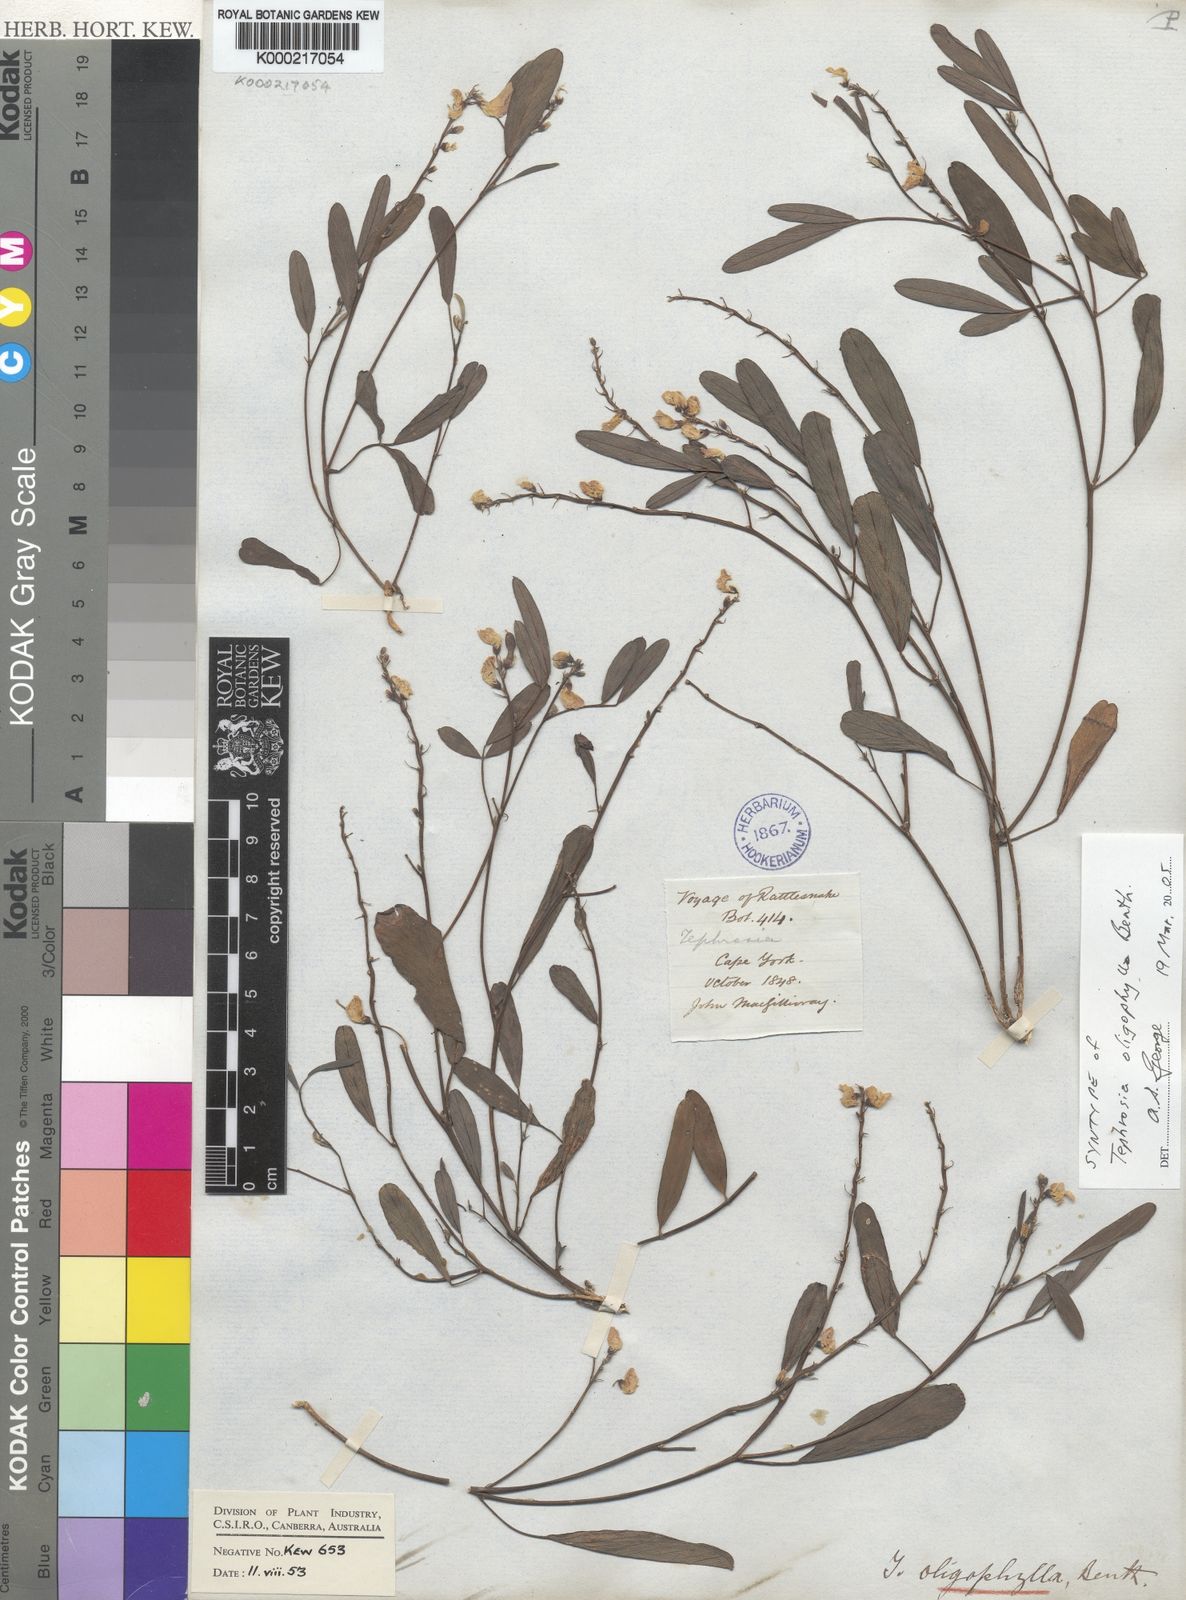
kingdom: Plantae
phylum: Tracheophyta
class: Magnoliopsida
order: Fabales
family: Fabaceae
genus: Tephrosia
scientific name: Tephrosia oligophylla
